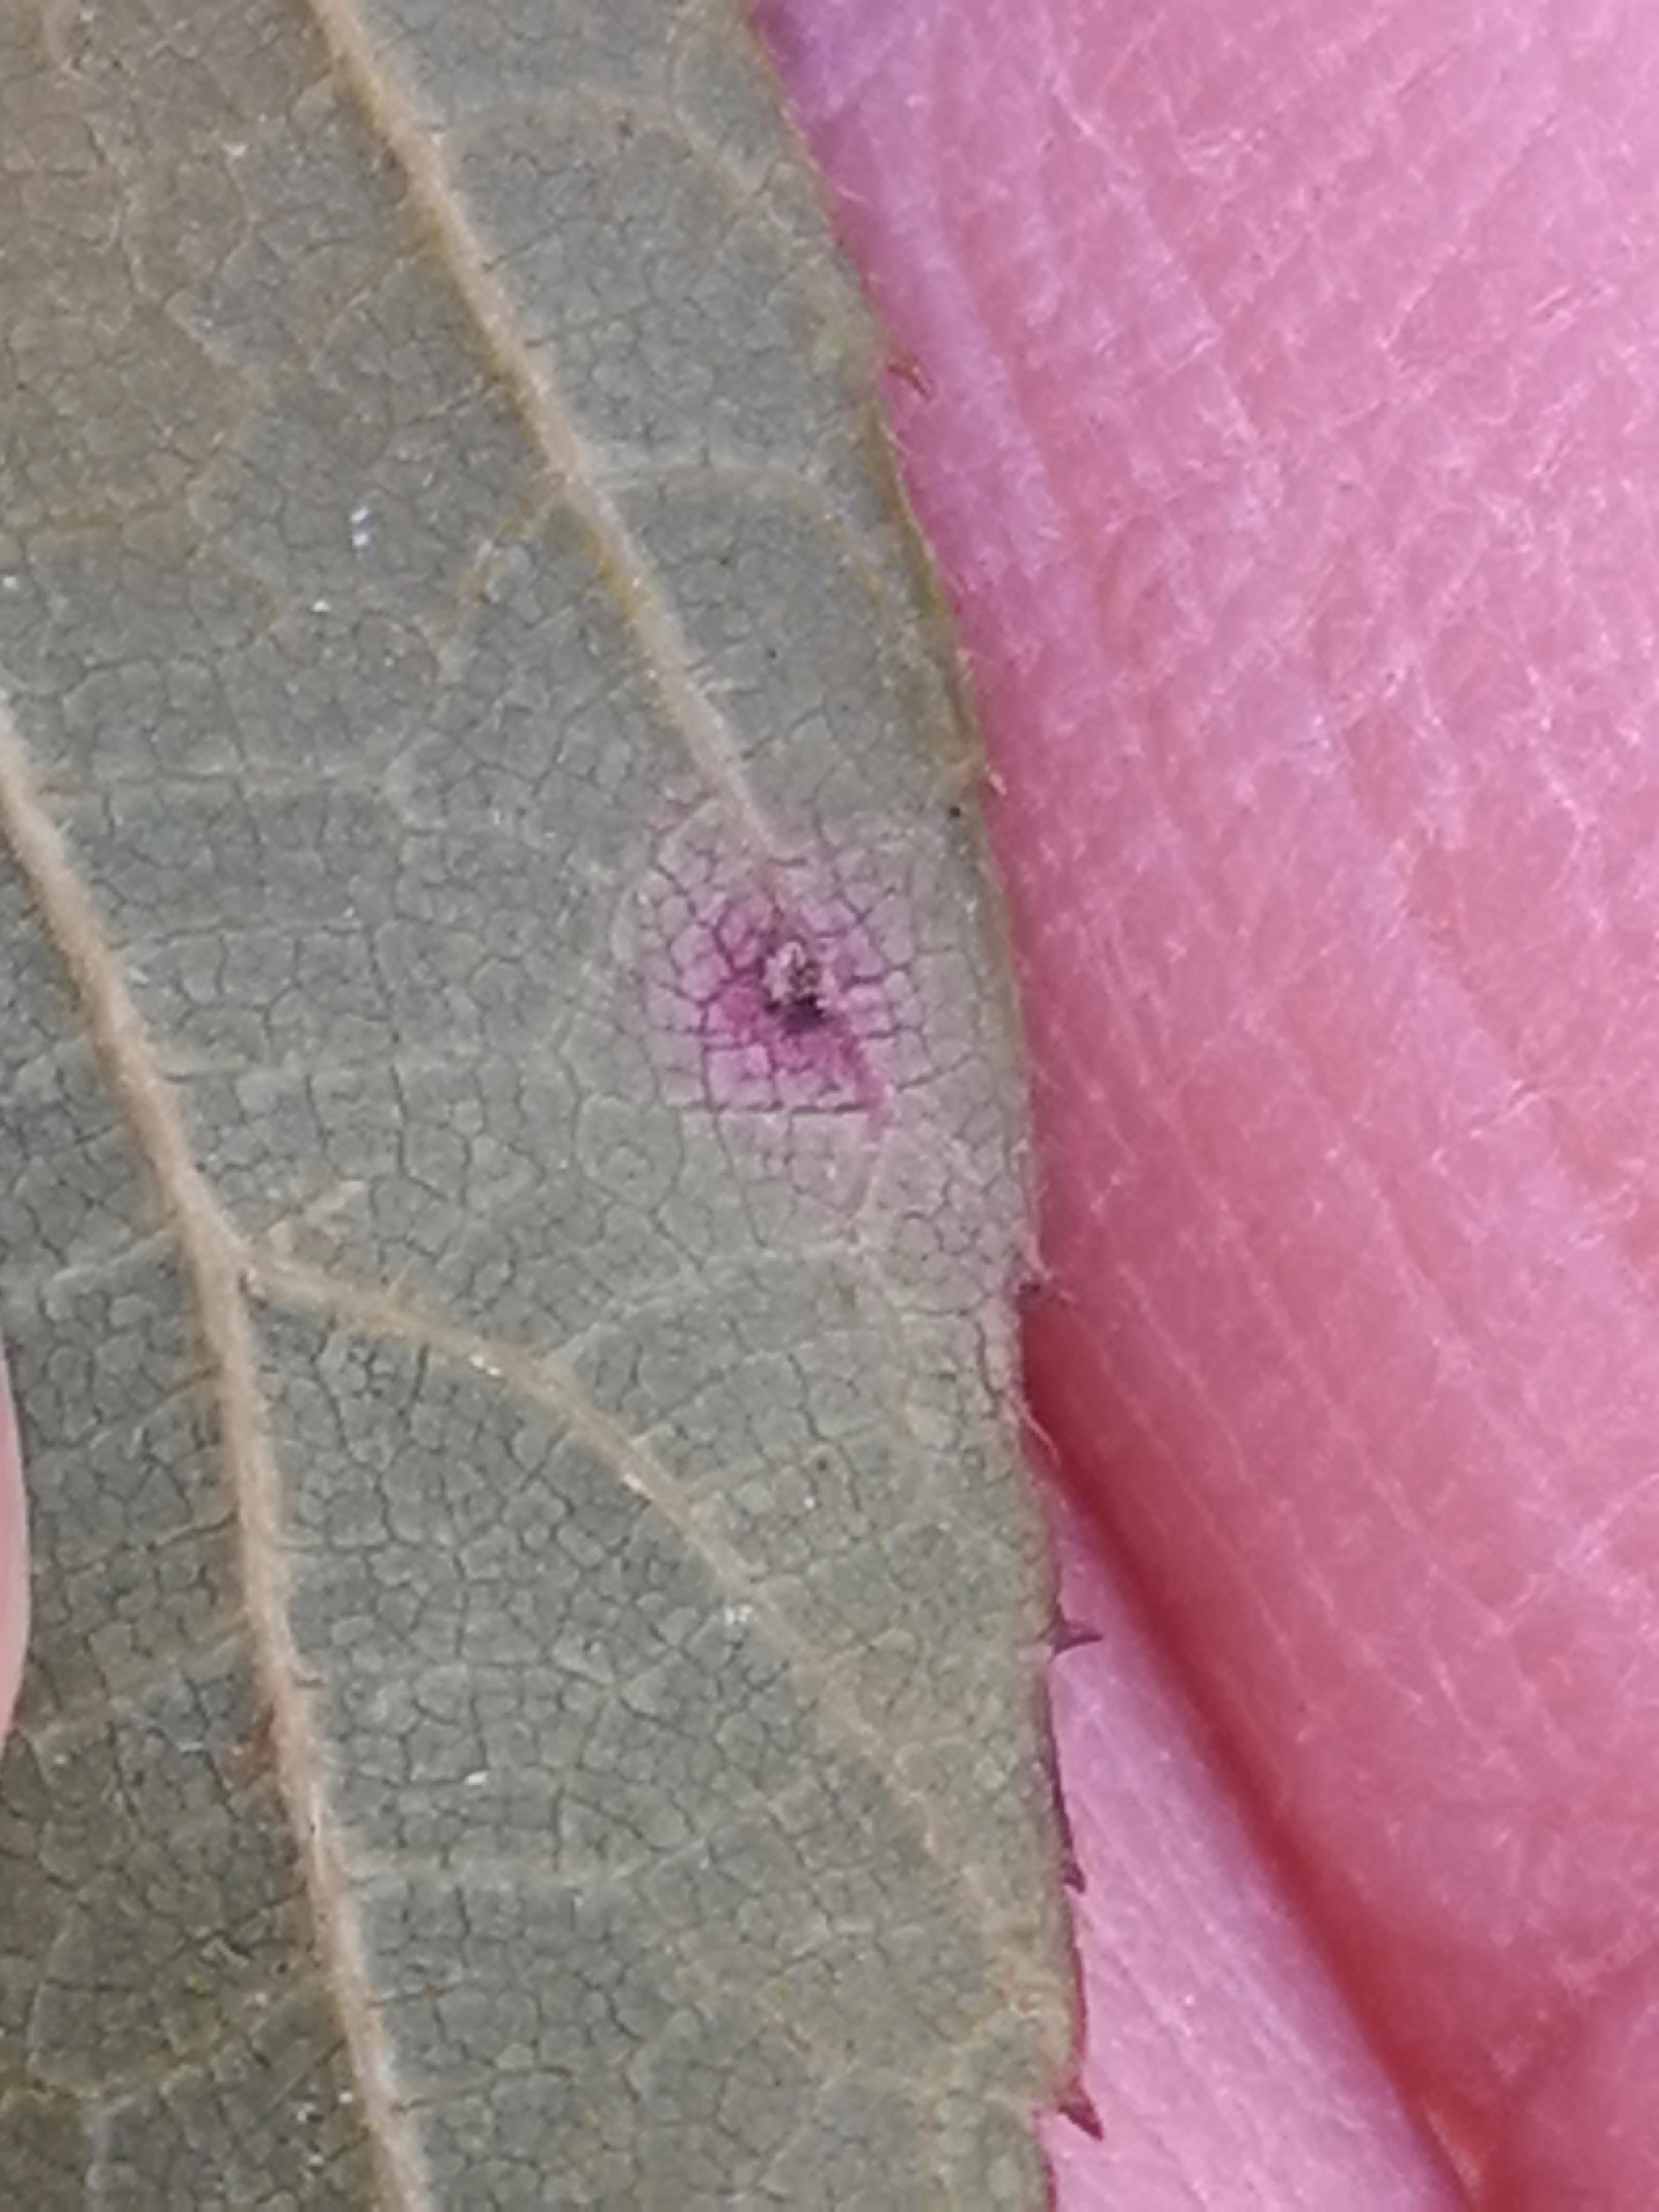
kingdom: Fungi
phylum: Basidiomycota
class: Pucciniomycetes
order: Pucciniales
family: Phragmidiaceae
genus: Phragmidium
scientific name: Phragmidium
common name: flercellerust
